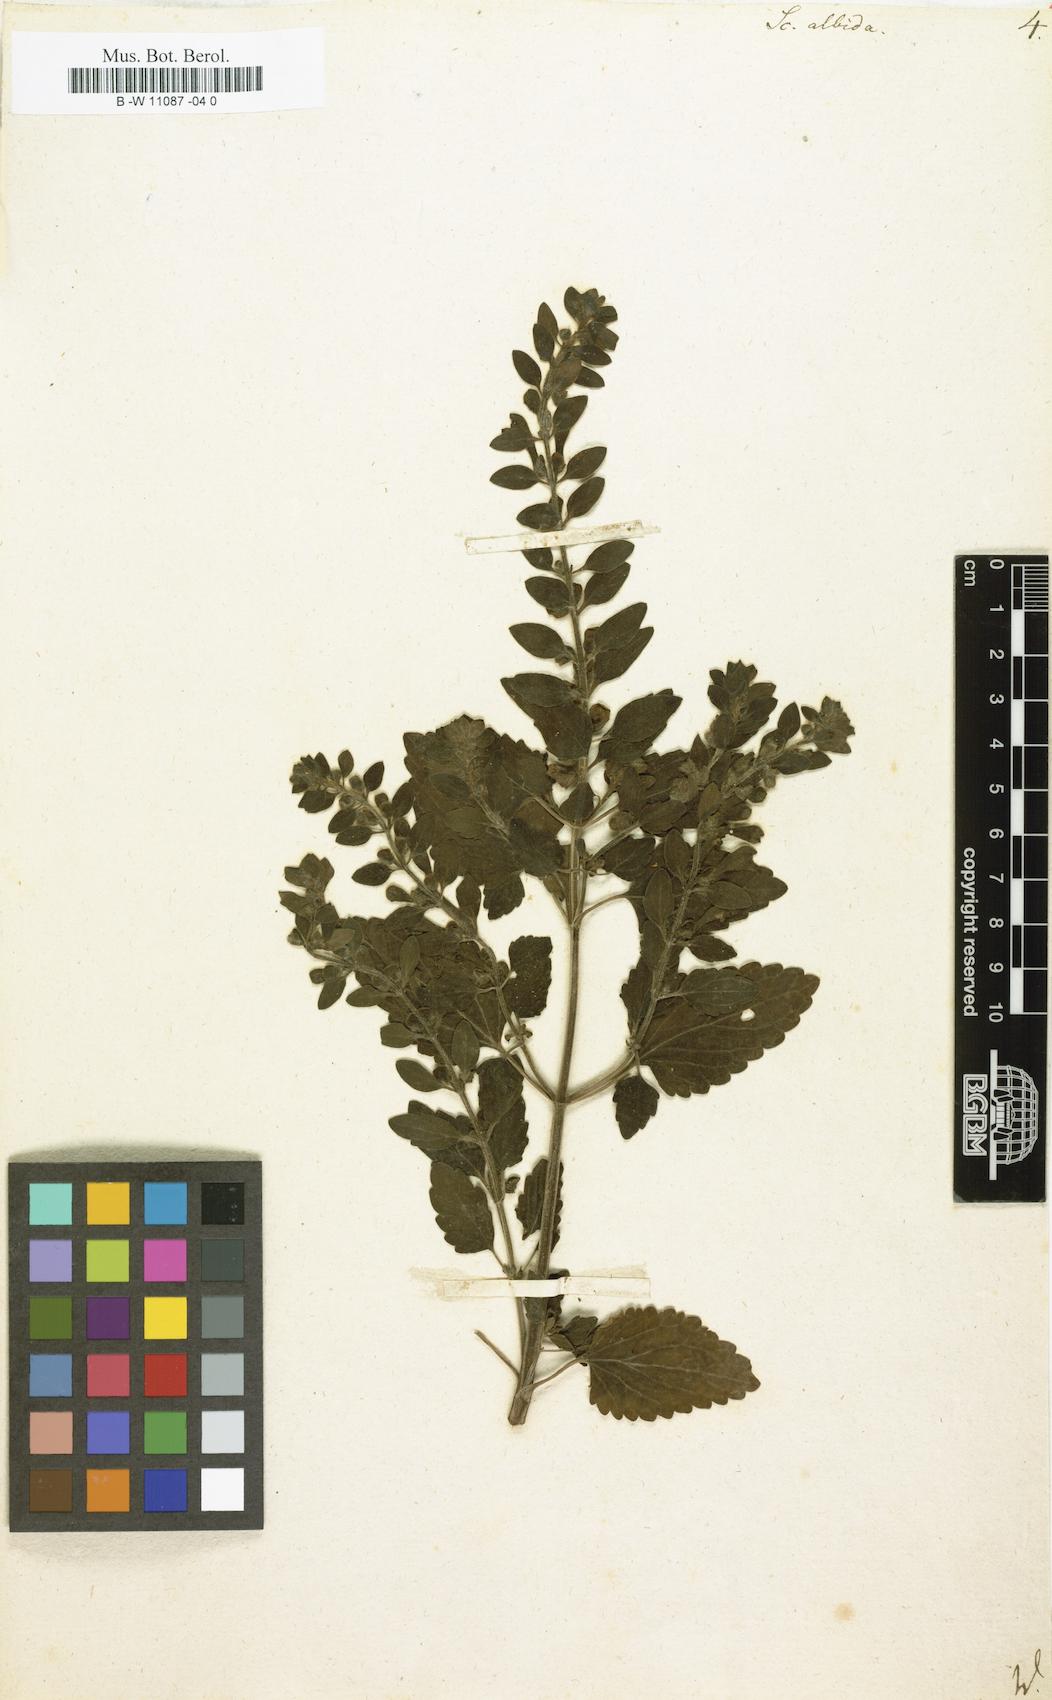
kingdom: Plantae
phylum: Tracheophyta
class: Magnoliopsida
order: Lamiales
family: Lamiaceae
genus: Scutellaria
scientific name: Scutellaria albida
